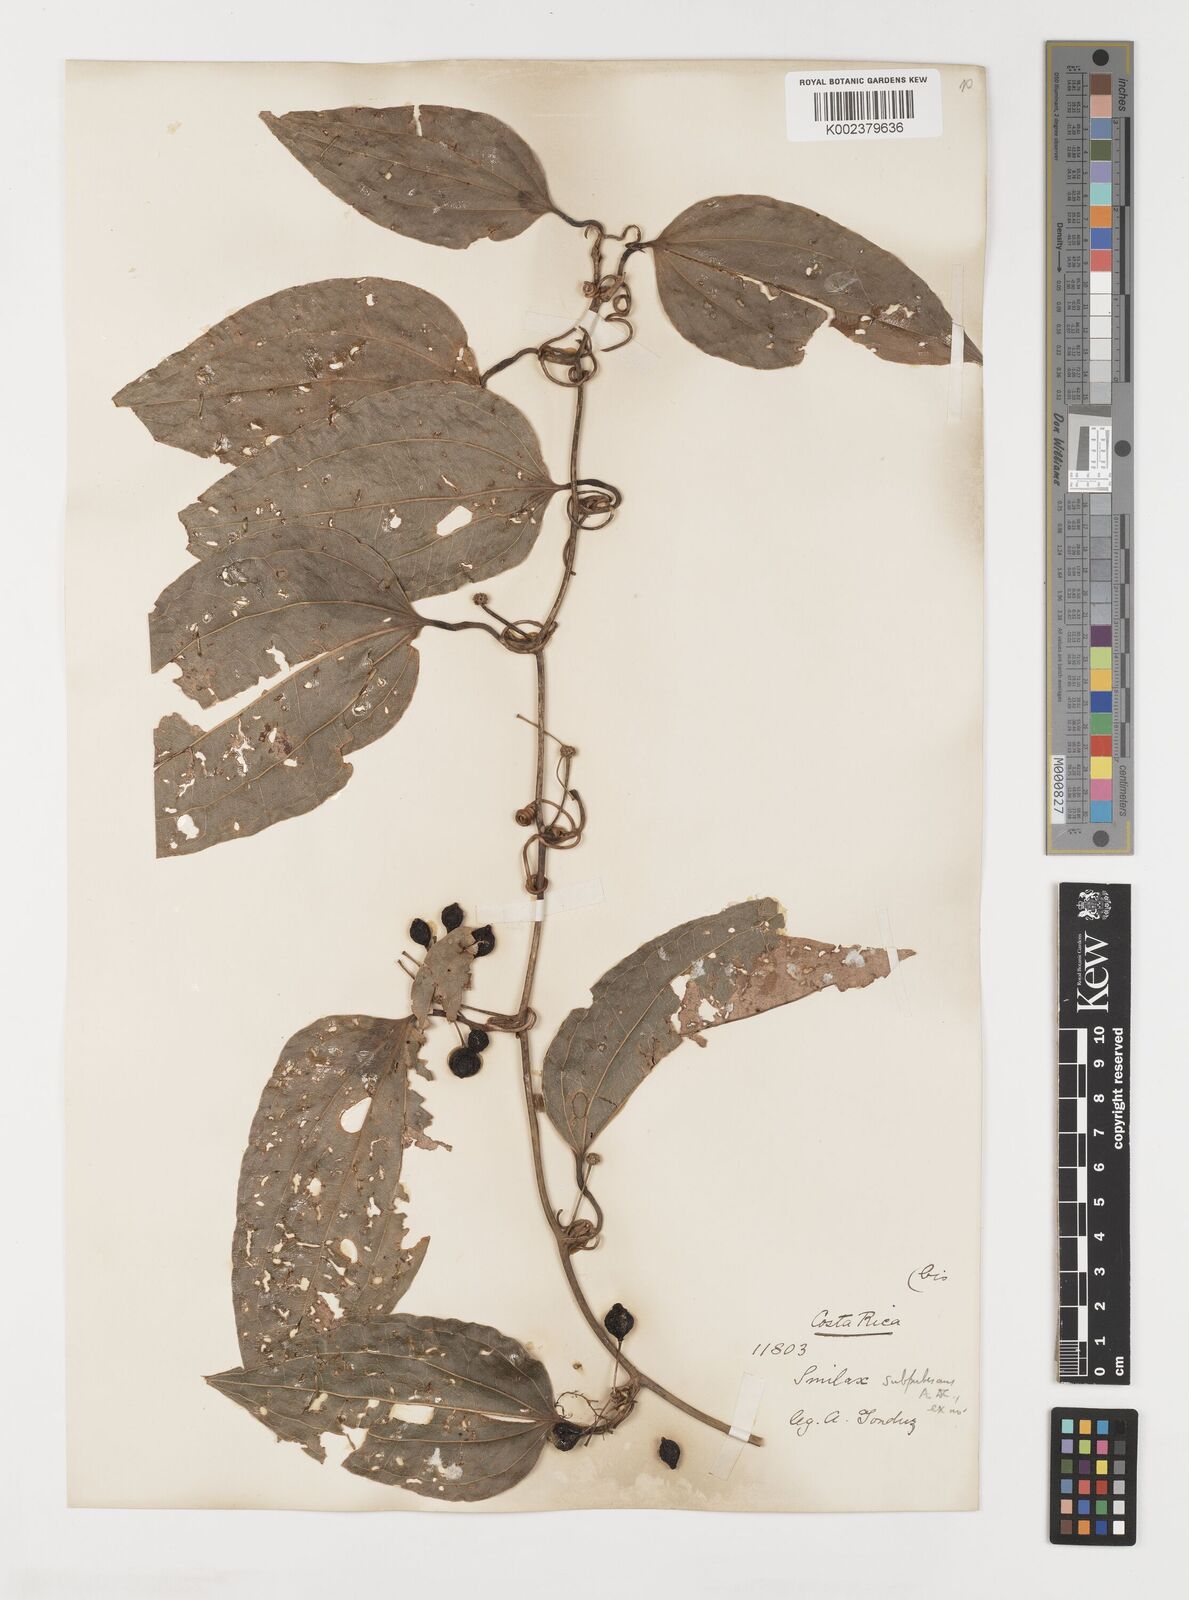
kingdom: Plantae
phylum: Tracheophyta
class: Liliopsida
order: Liliales
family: Smilacaceae
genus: Smilax
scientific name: Smilax subpubescens
